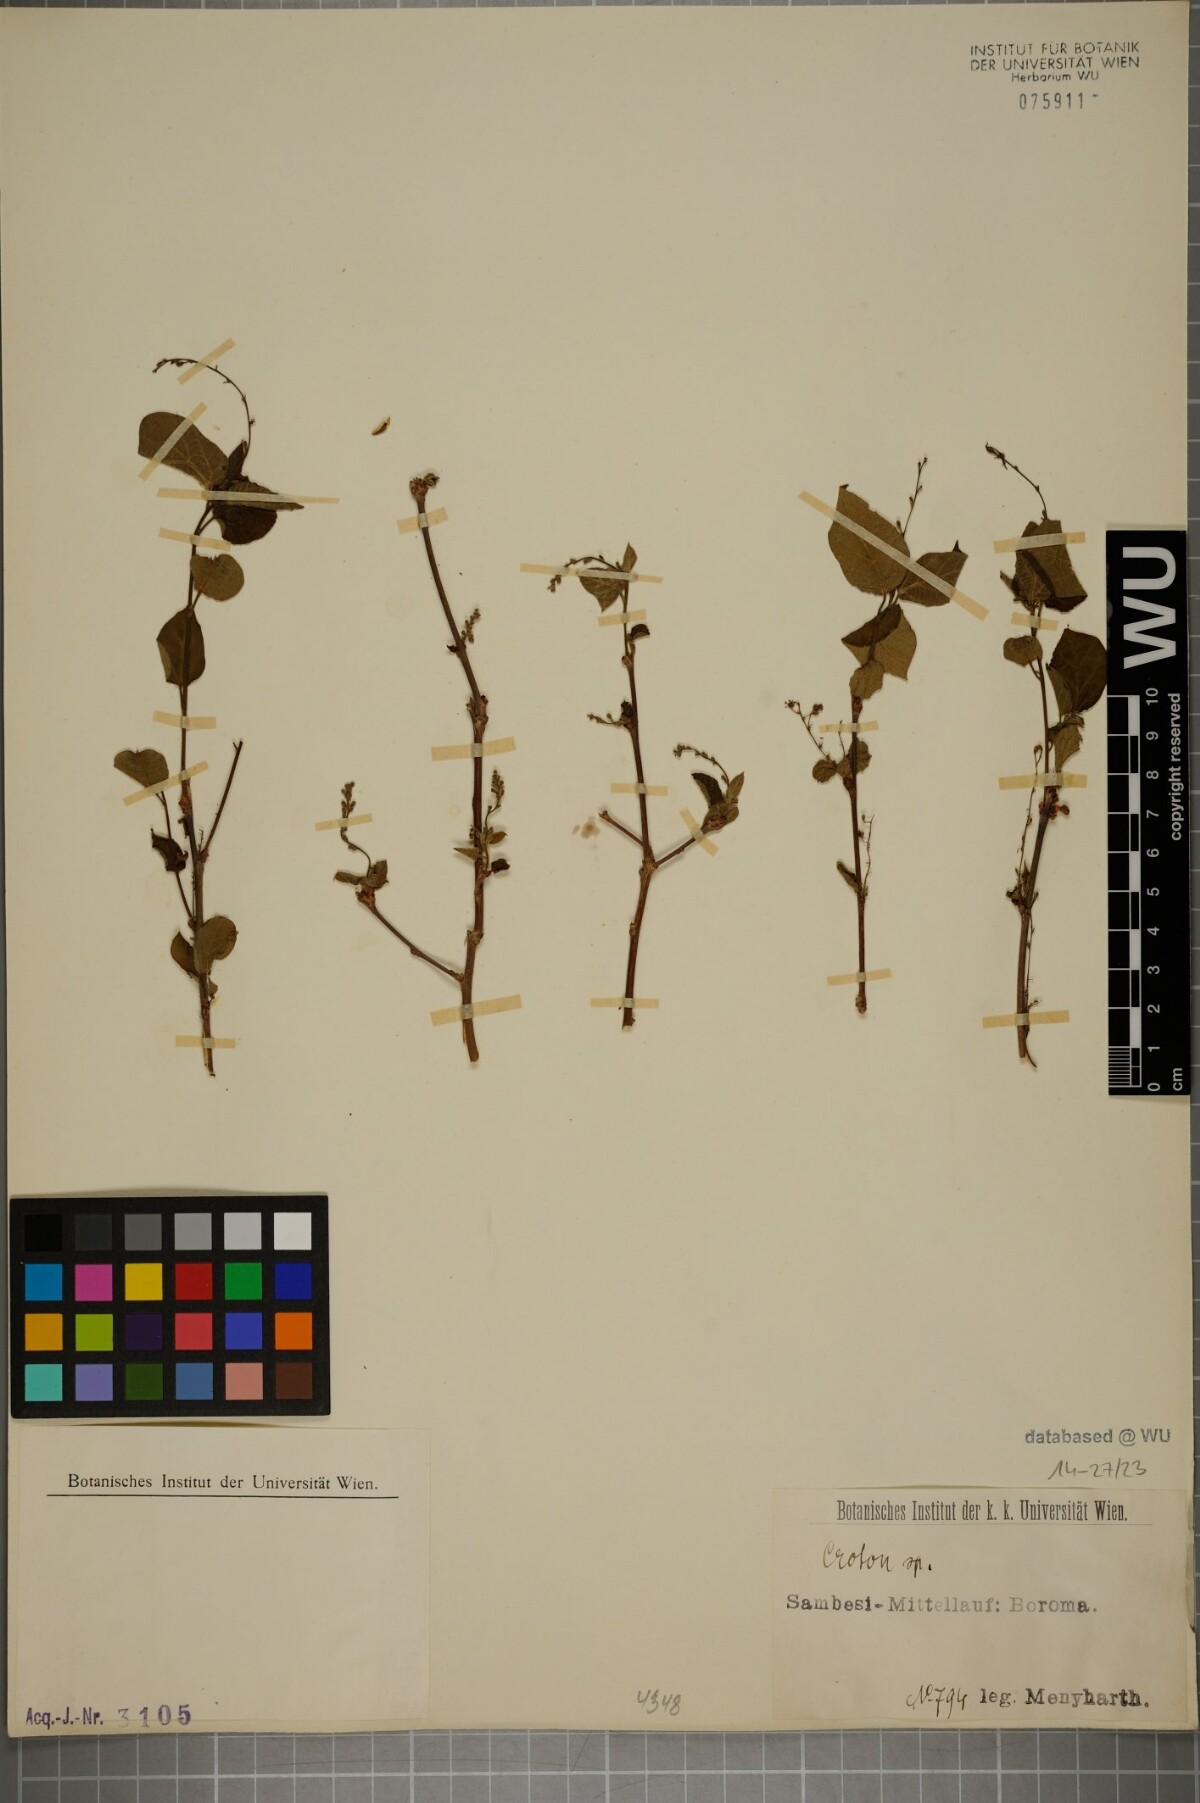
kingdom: Plantae
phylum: Tracheophyta
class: Magnoliopsida
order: Malpighiales
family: Euphorbiaceae
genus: Croton
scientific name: Croton
